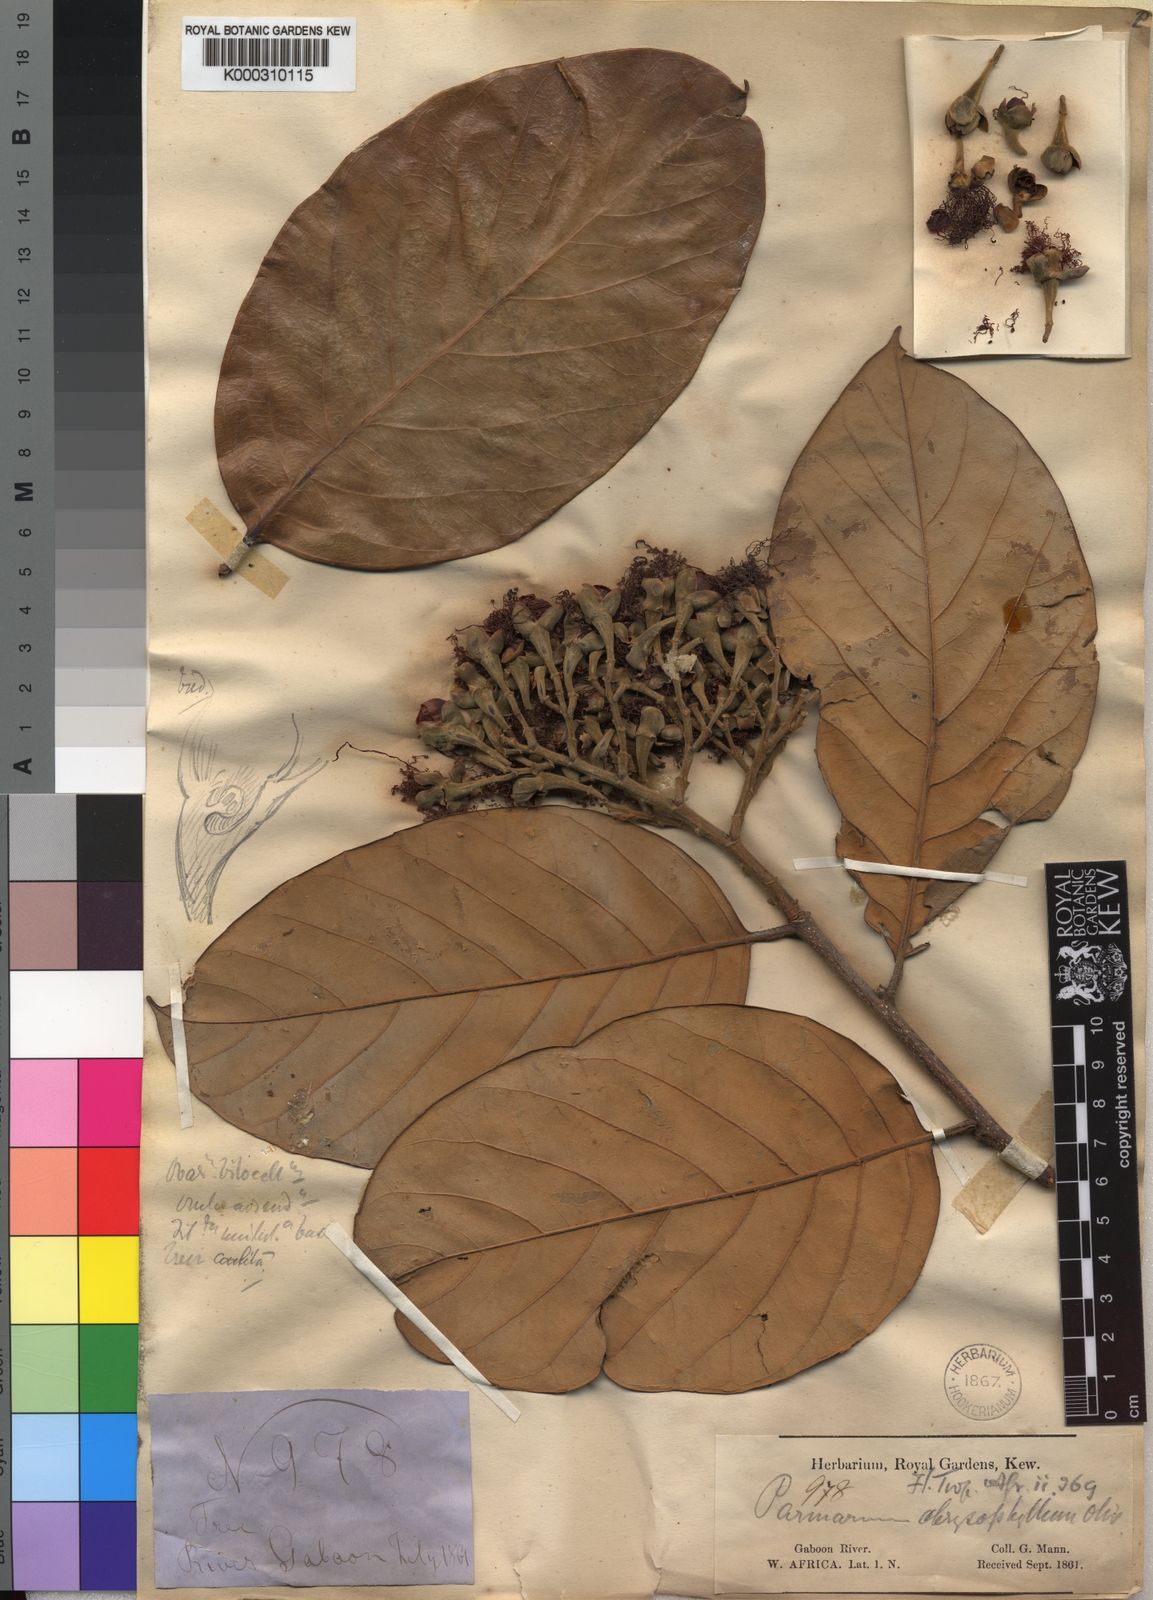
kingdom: Plantae
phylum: Tracheophyta
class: Magnoliopsida
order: Malpighiales
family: Chrysobalanaceae
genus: Maranthes
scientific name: Maranthes
